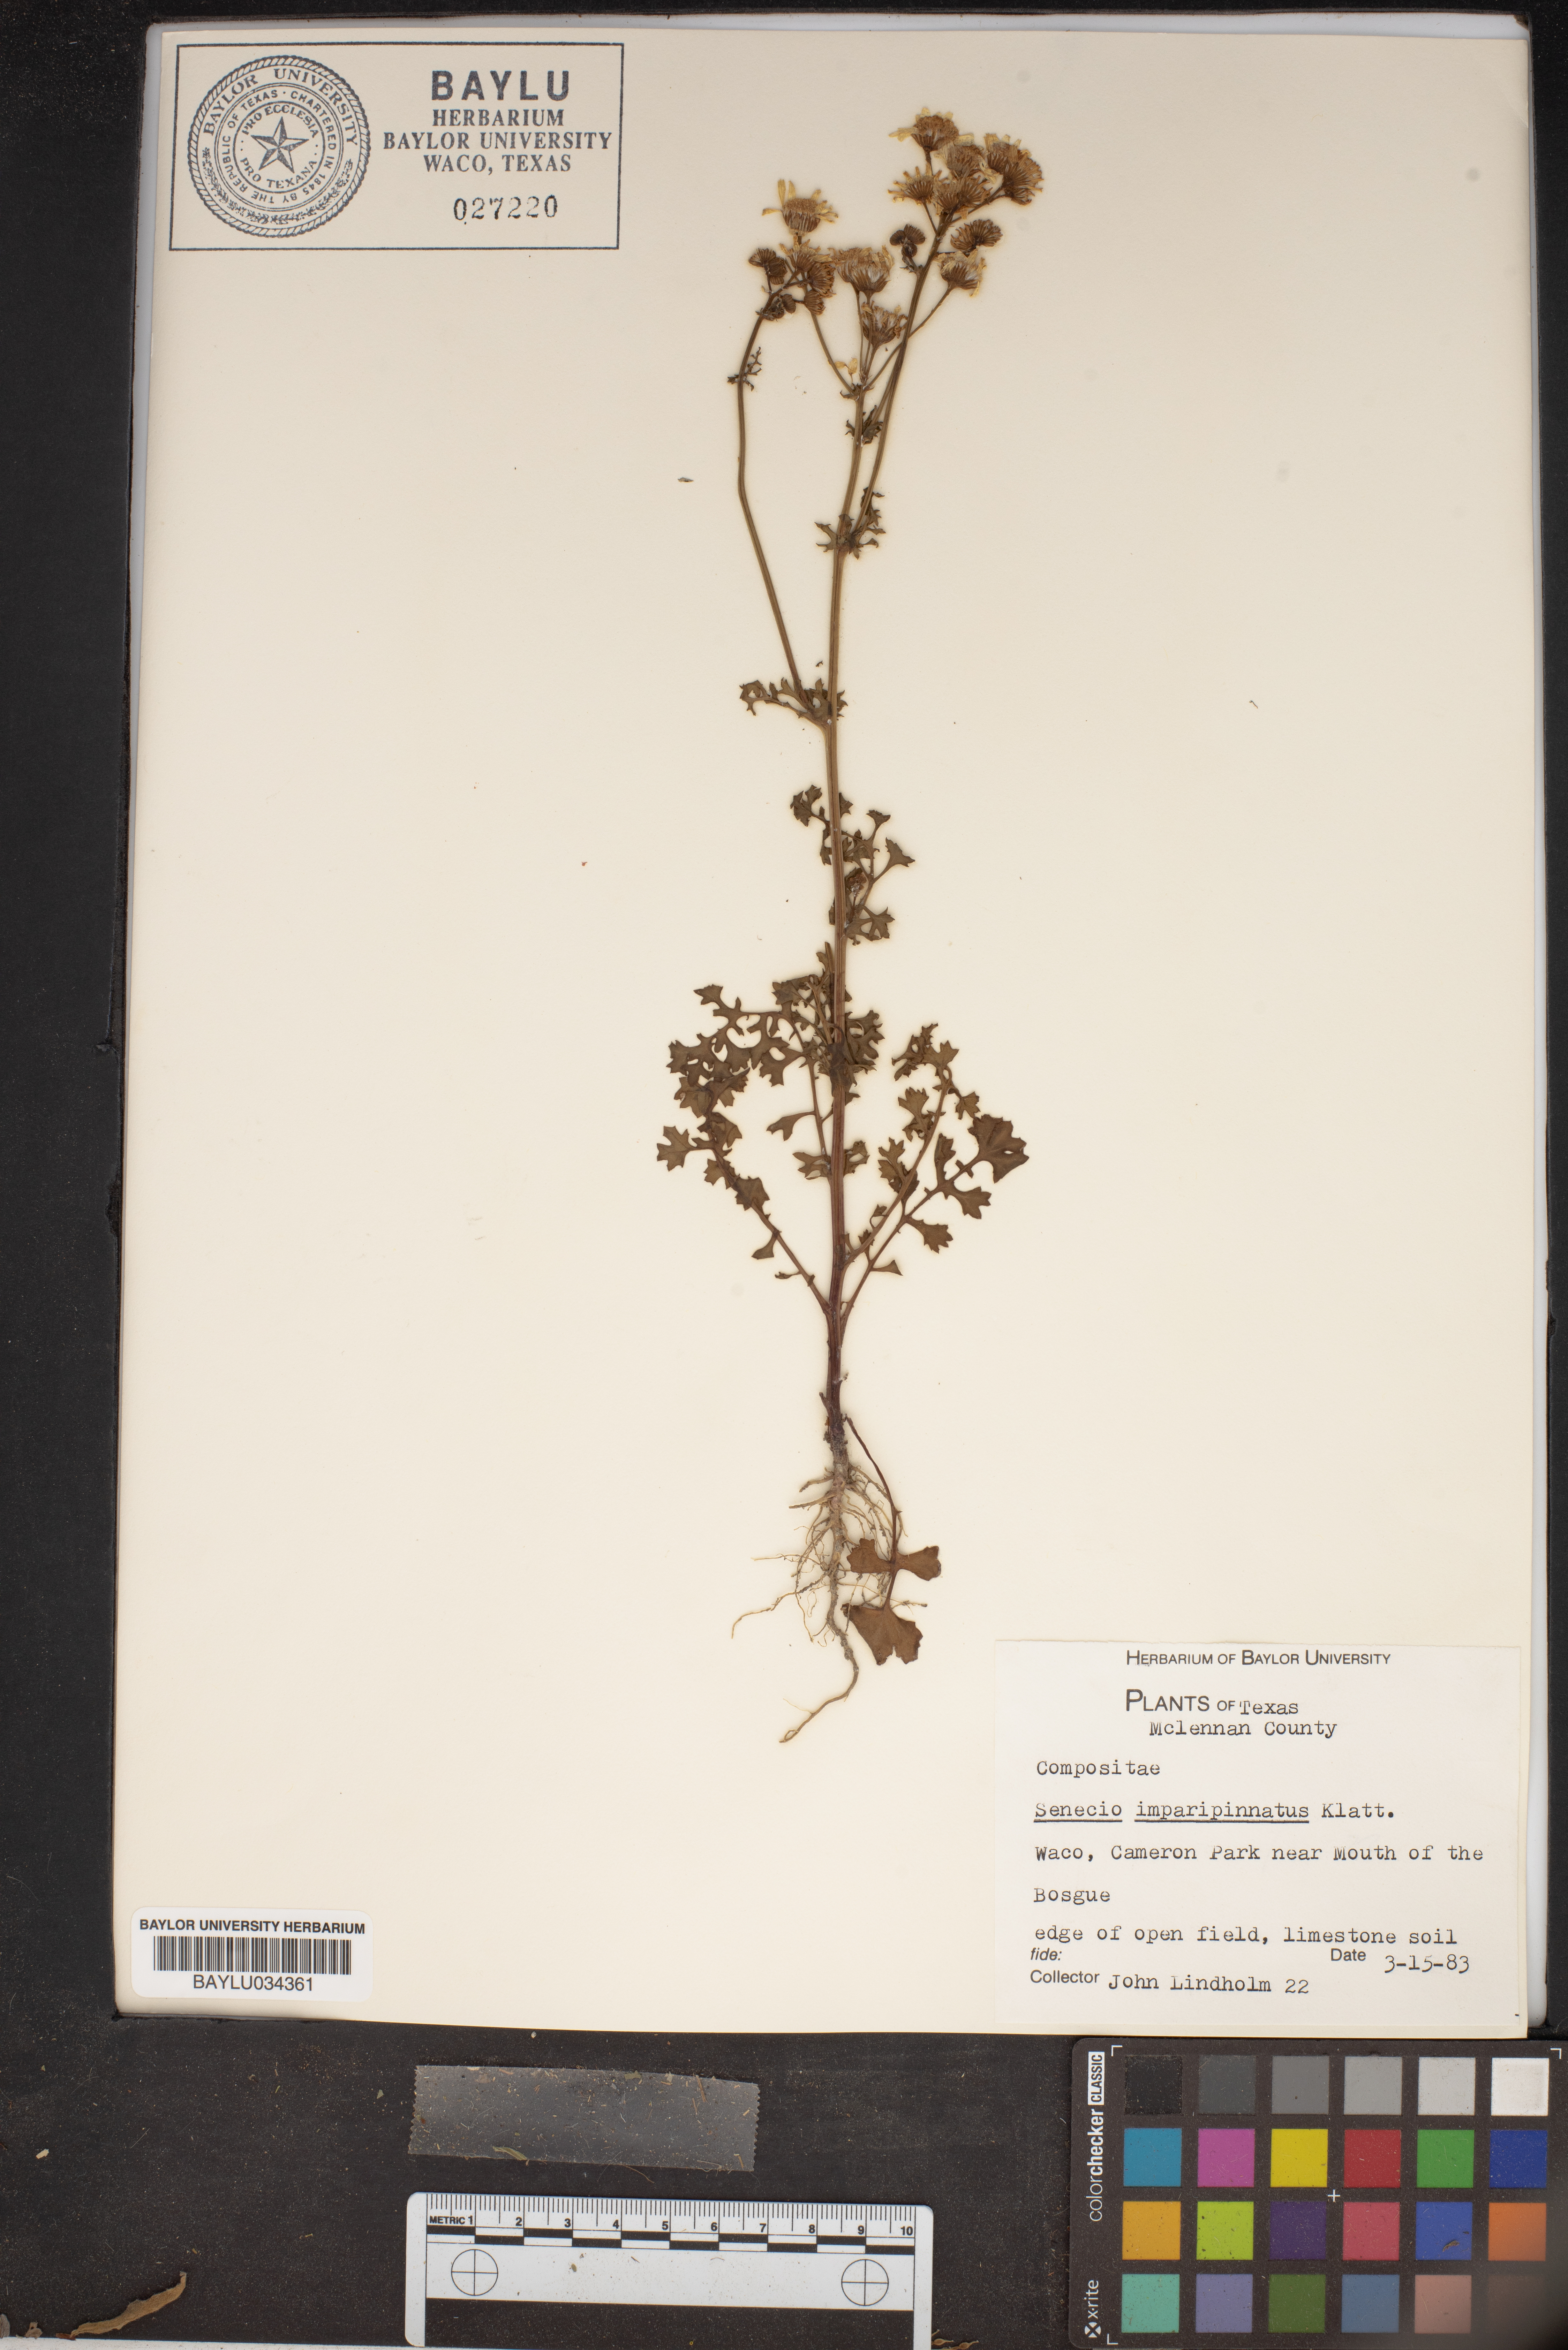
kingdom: Plantae
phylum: Tracheophyta
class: Magnoliopsida
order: Asterales
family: Asteraceae
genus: Packera
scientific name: Packera tampicana
